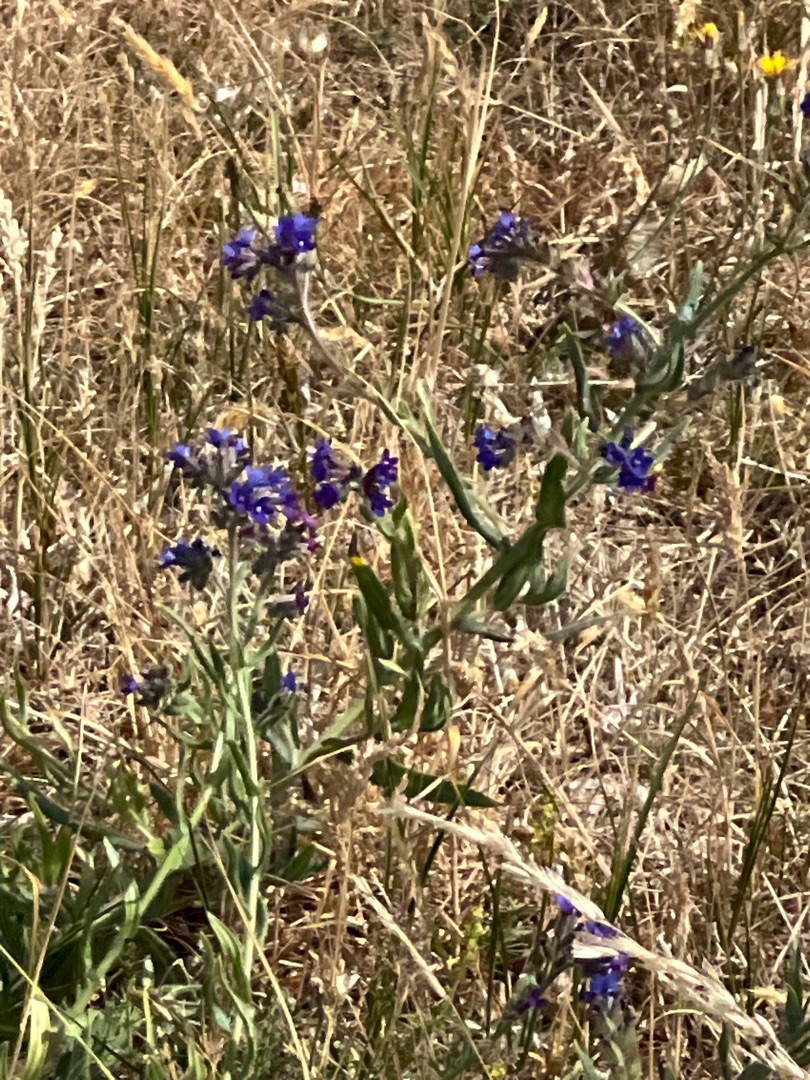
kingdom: Plantae
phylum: Tracheophyta
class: Magnoliopsida
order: Boraginales
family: Boraginaceae
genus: Anchusa
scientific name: Anchusa officinalis
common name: Læge-oksetunge
